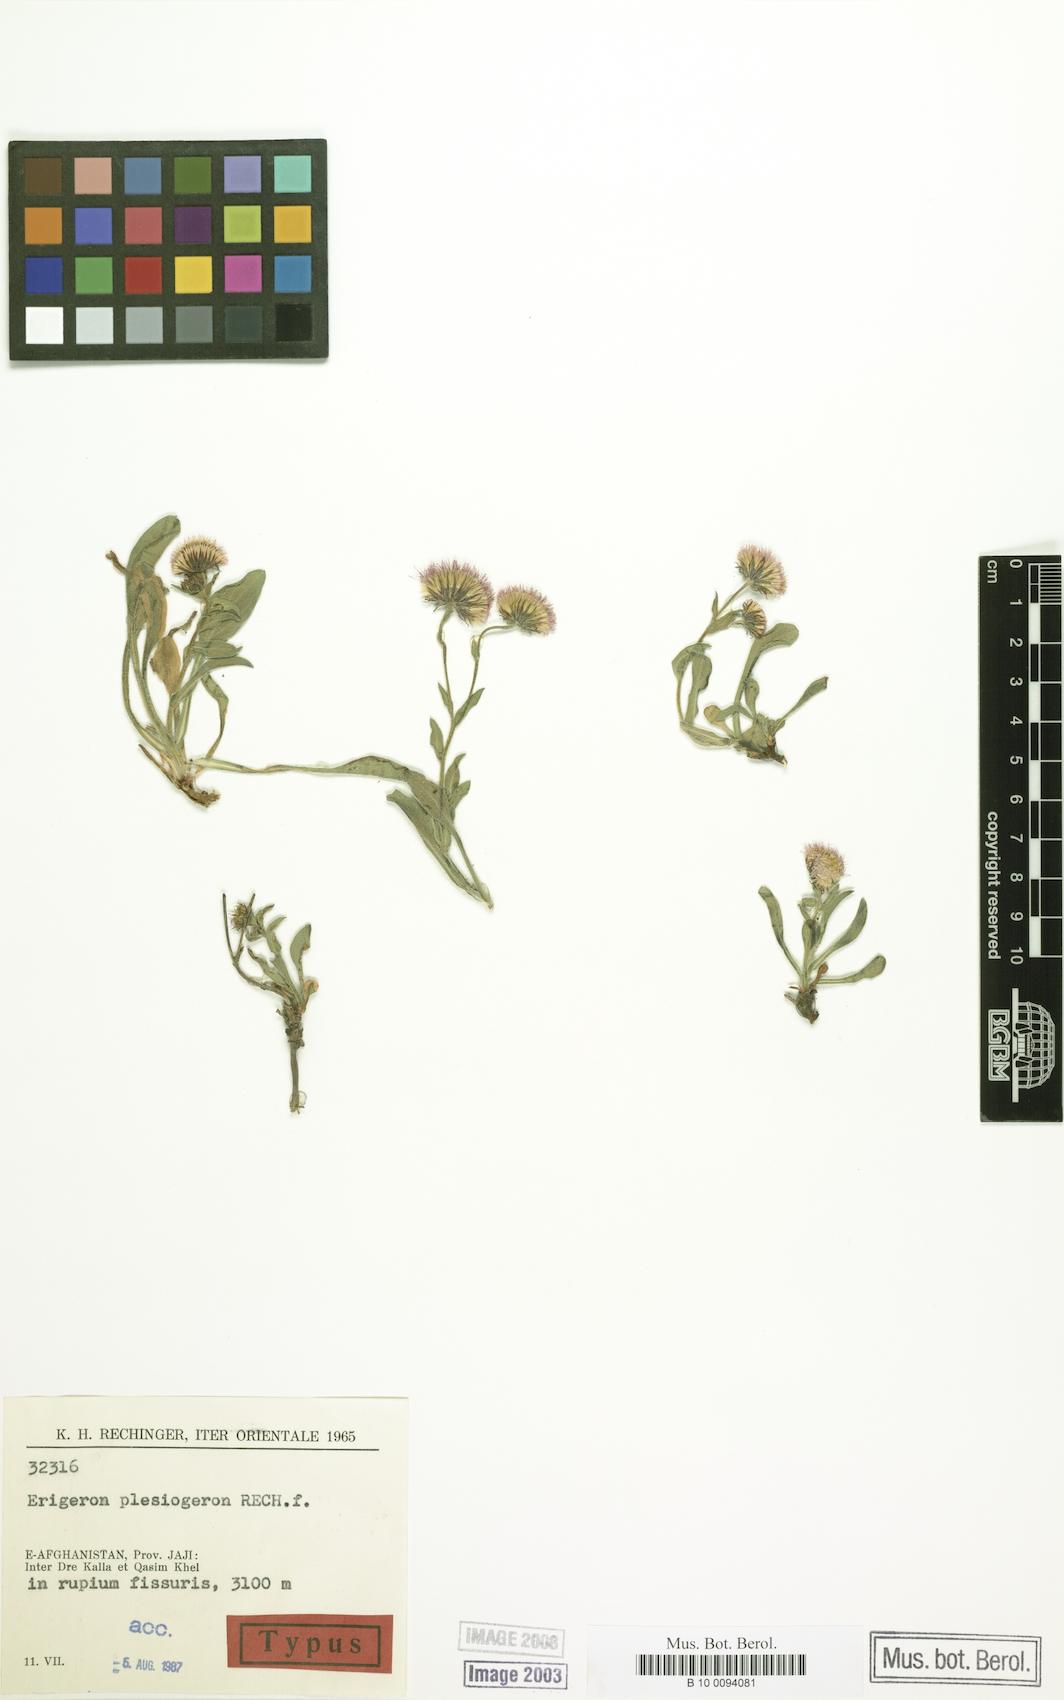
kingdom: Plantae
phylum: Tracheophyta
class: Magnoliopsida
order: Asterales
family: Asteraceae
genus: Erigeron
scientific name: Erigeron plesiogeron
